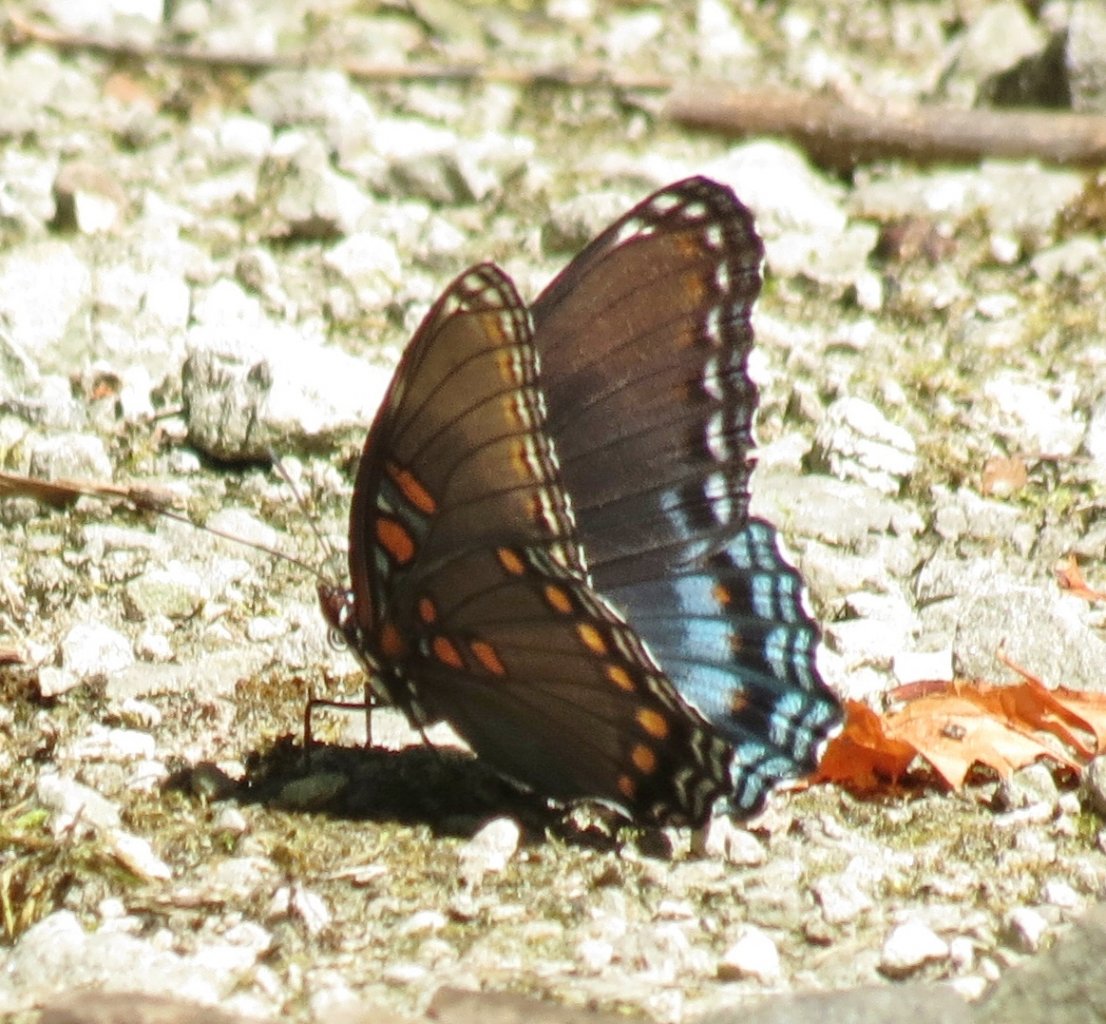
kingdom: Animalia
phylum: Arthropoda
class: Insecta
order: Lepidoptera
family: Nymphalidae
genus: Limenitis
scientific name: Limenitis astyanax
